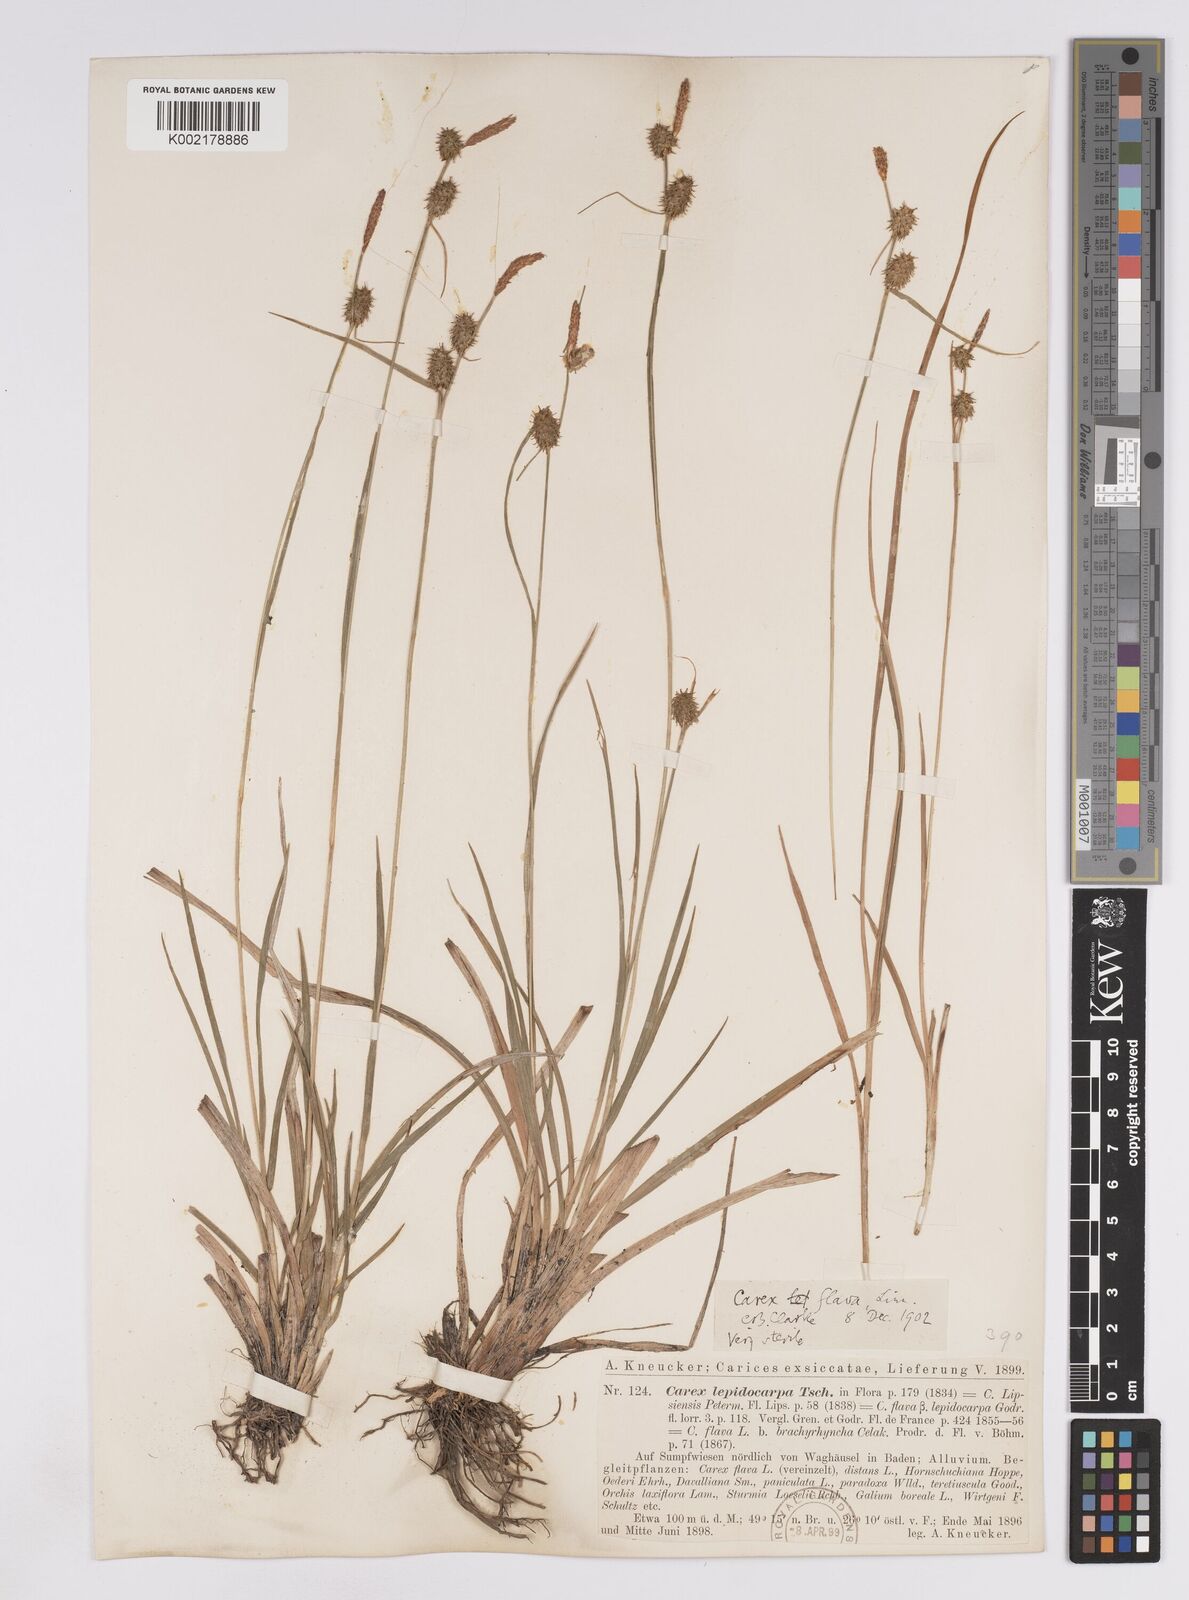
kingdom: Plantae
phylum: Tracheophyta
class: Liliopsida
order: Poales
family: Cyperaceae
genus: Carex
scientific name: Carex lepidocarpa
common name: Long-stalked yellow-sedge
